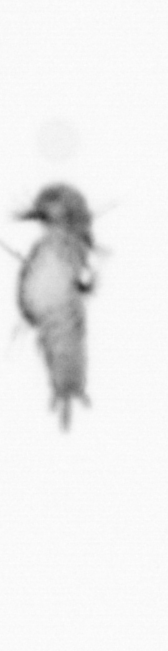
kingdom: Animalia
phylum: Annelida
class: Polychaeta
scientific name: Polychaeta
